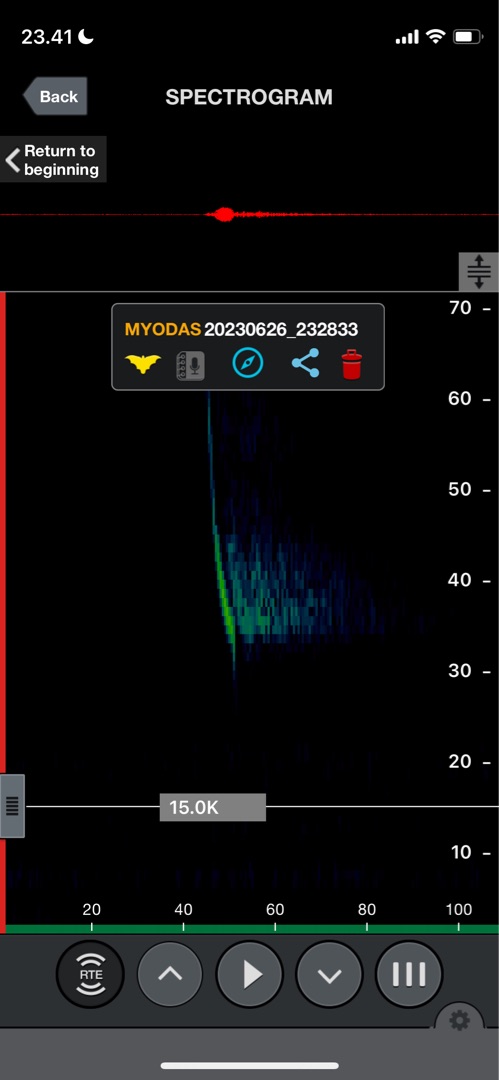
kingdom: Animalia
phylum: Chordata
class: Mammalia
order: Chiroptera
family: Vespertilionidae
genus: Myotis
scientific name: Myotis dasycneme
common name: Damflagermus
